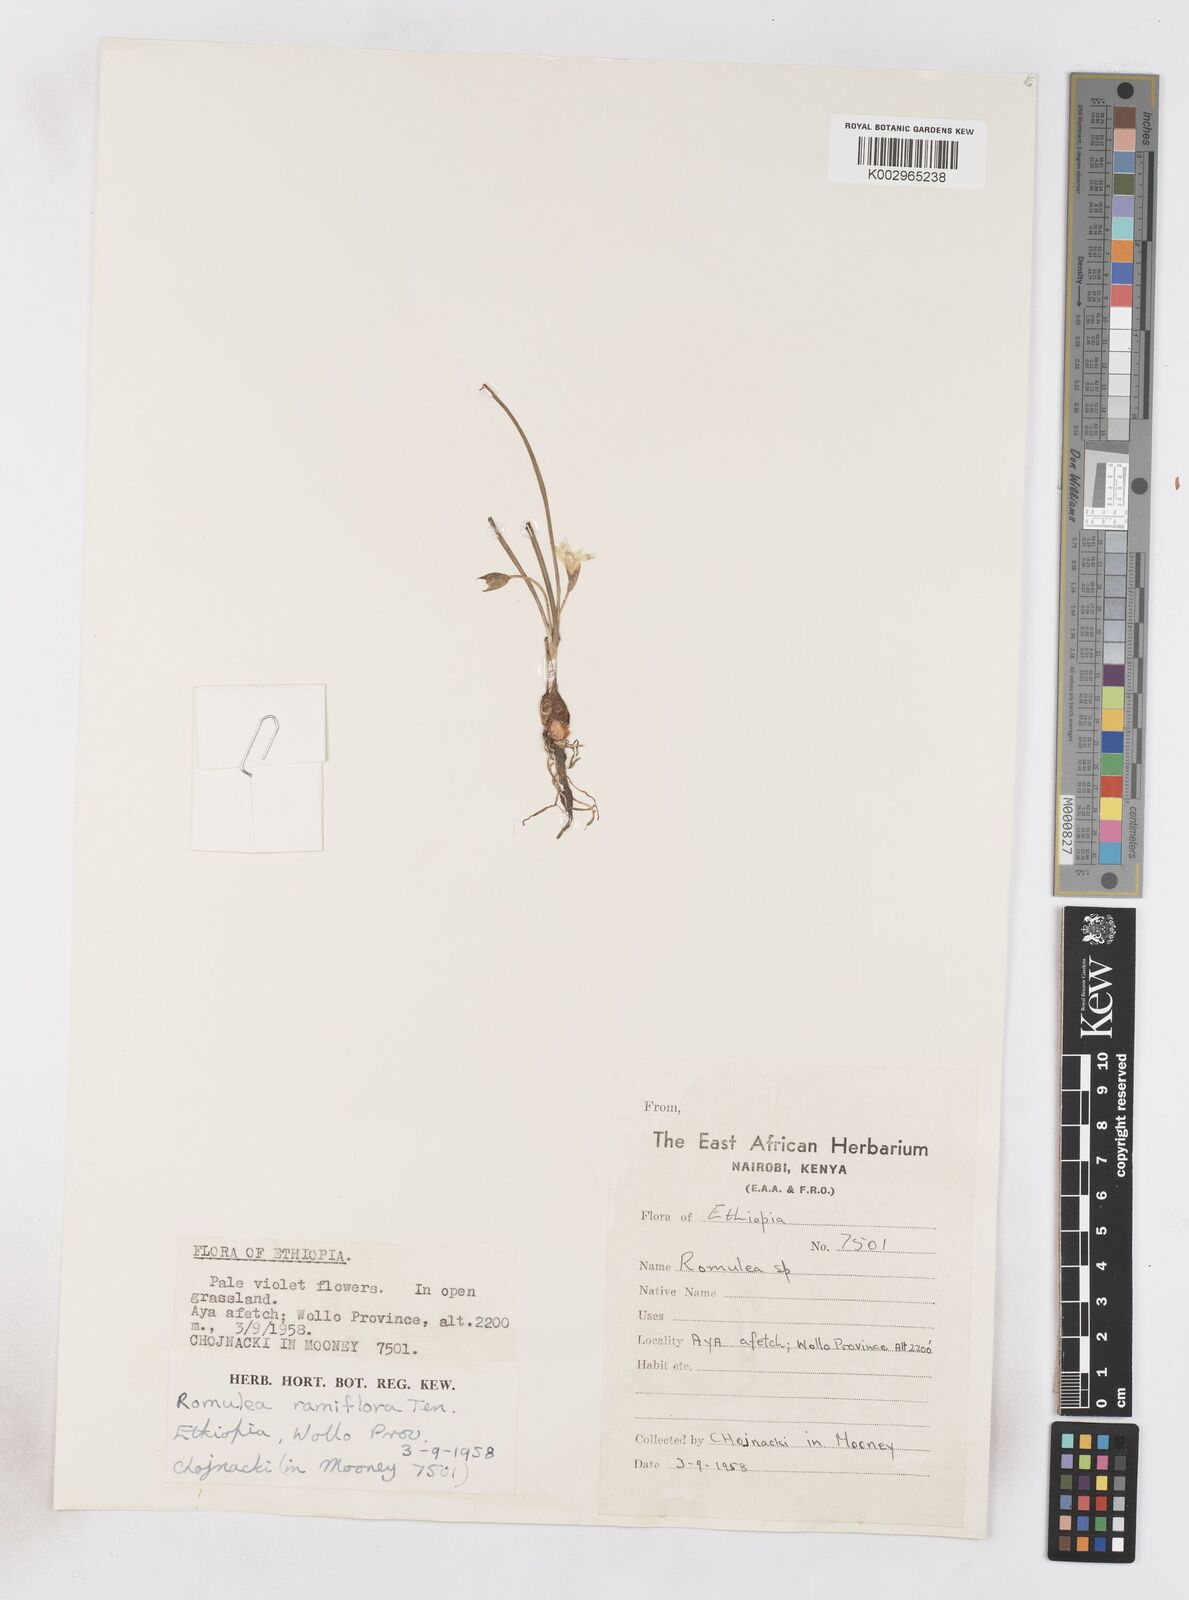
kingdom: Plantae
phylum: Tracheophyta
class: Liliopsida
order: Asparagales
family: Iridaceae
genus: Romulea
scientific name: Romulea fischeri
